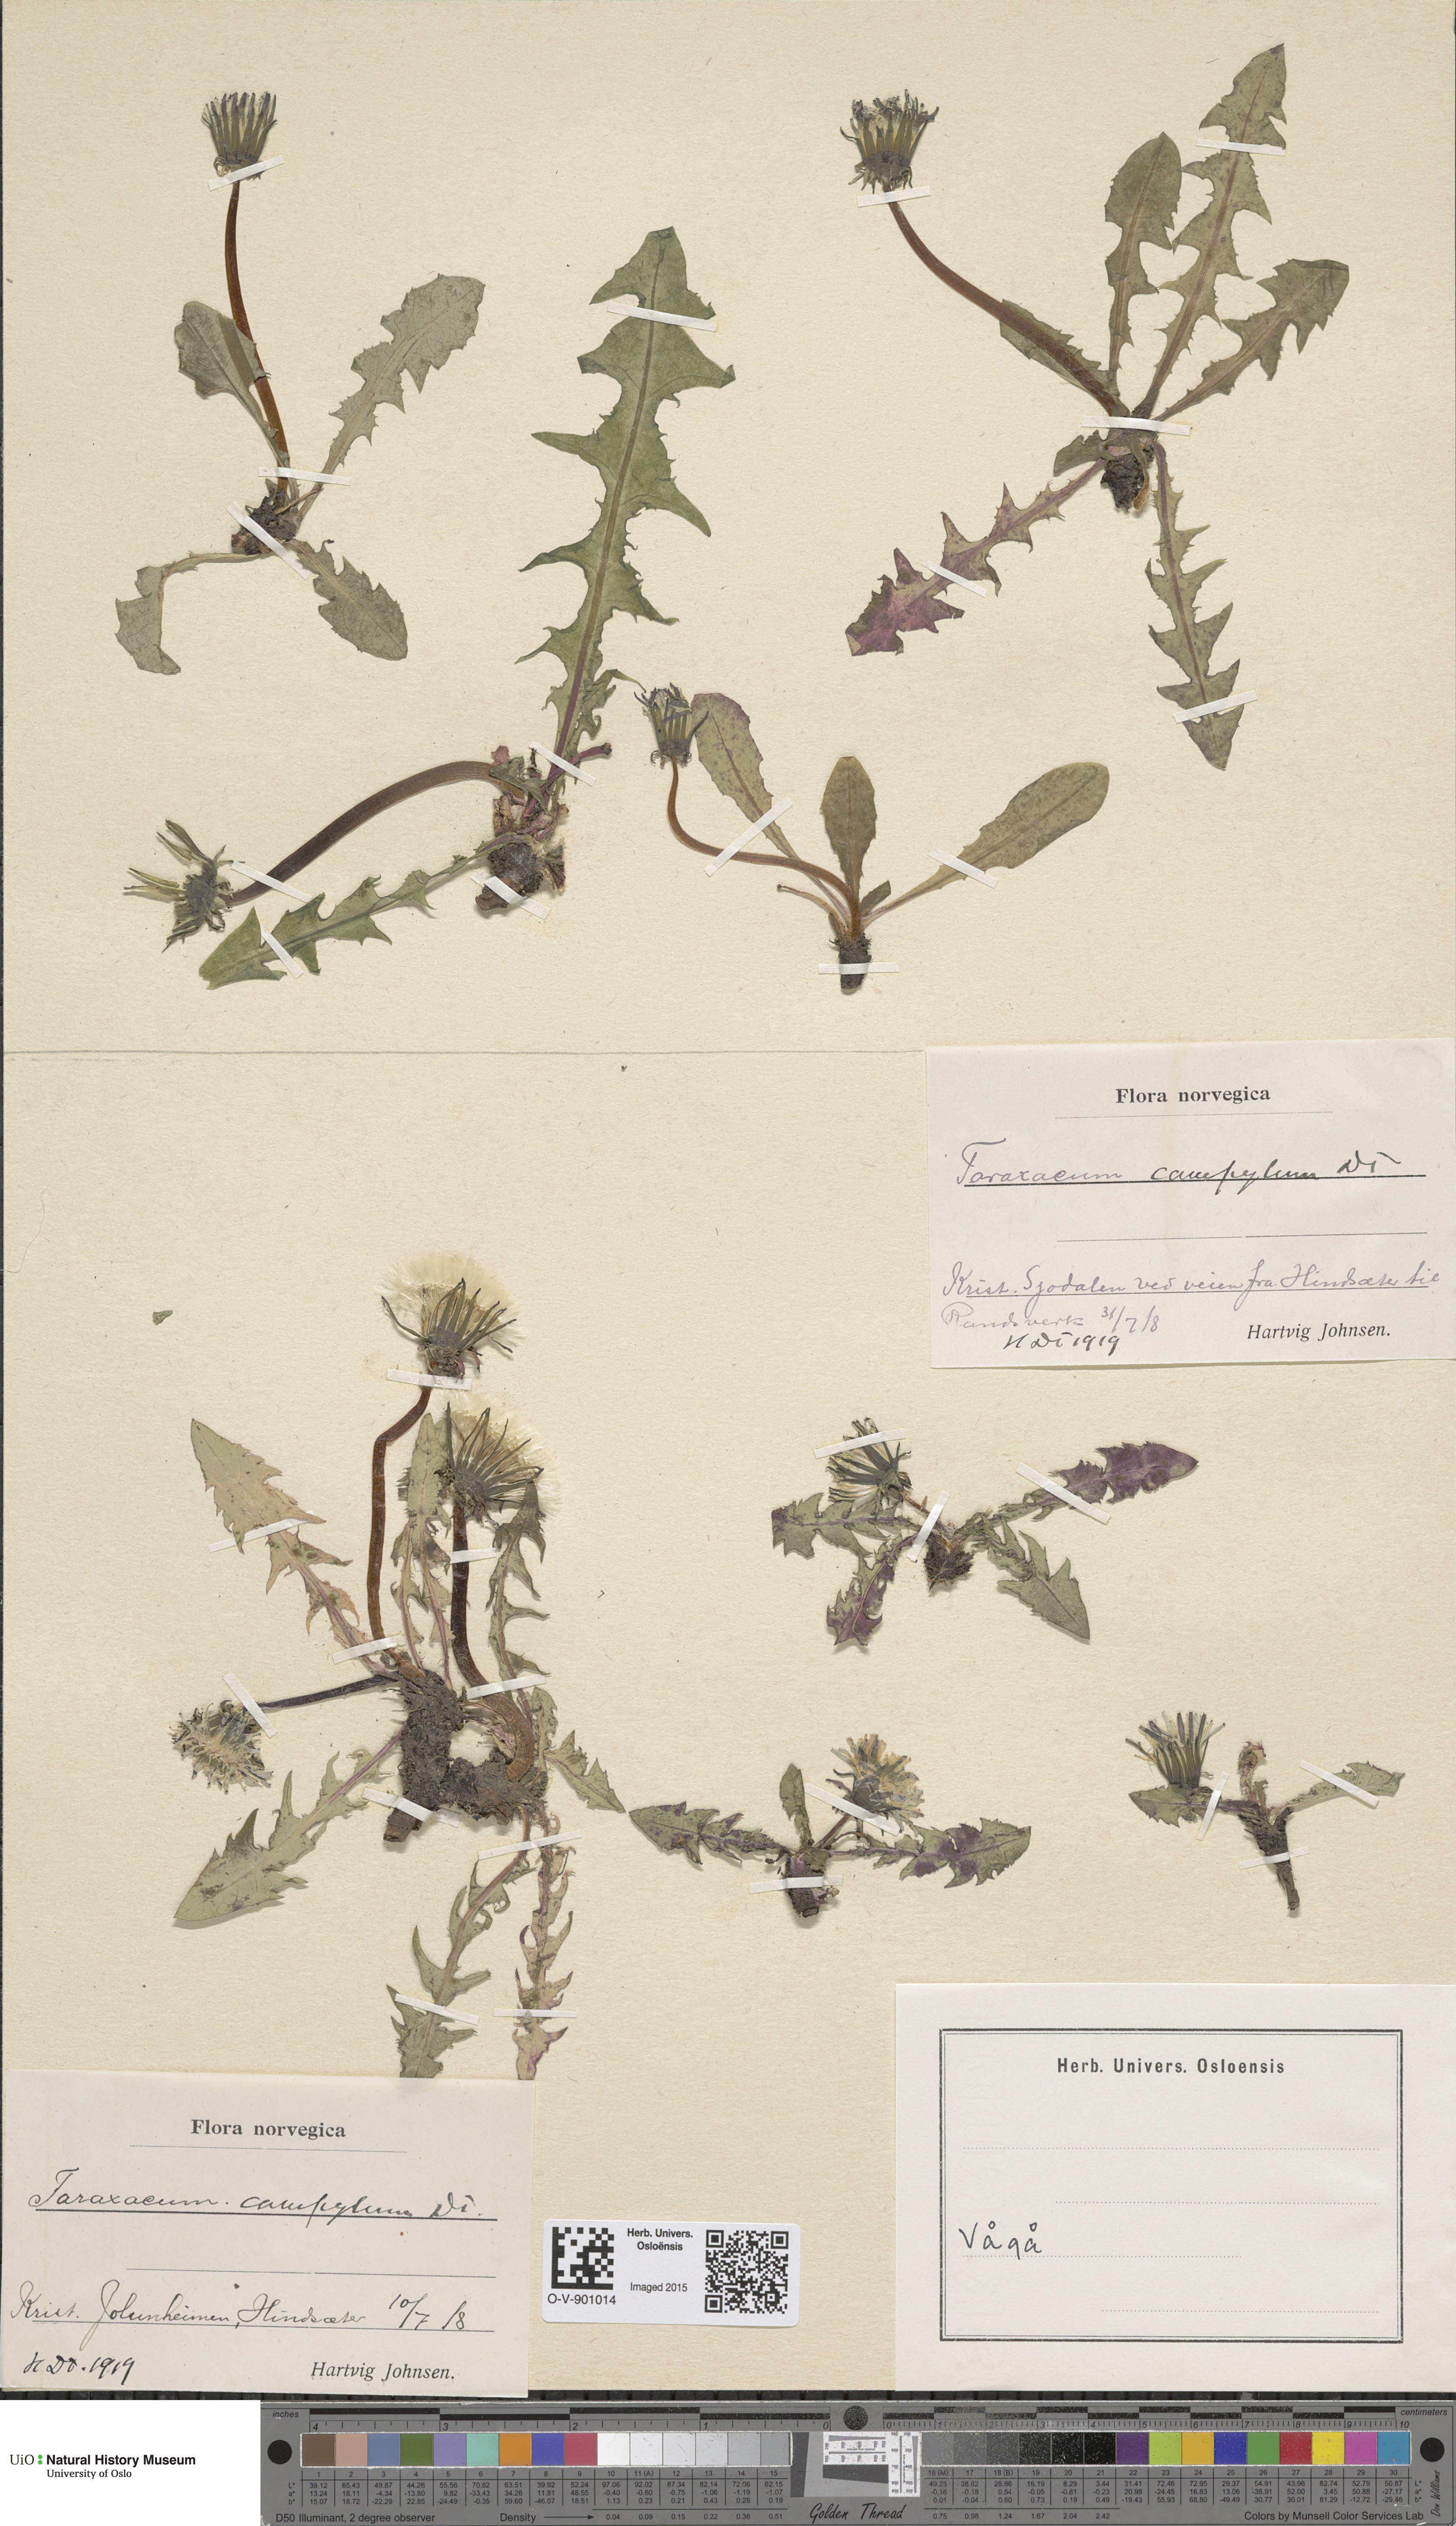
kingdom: Plantae
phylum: Tracheophyta
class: Magnoliopsida
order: Asterales
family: Asteraceae
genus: Taraxacum
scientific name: Taraxacum oxylobium
